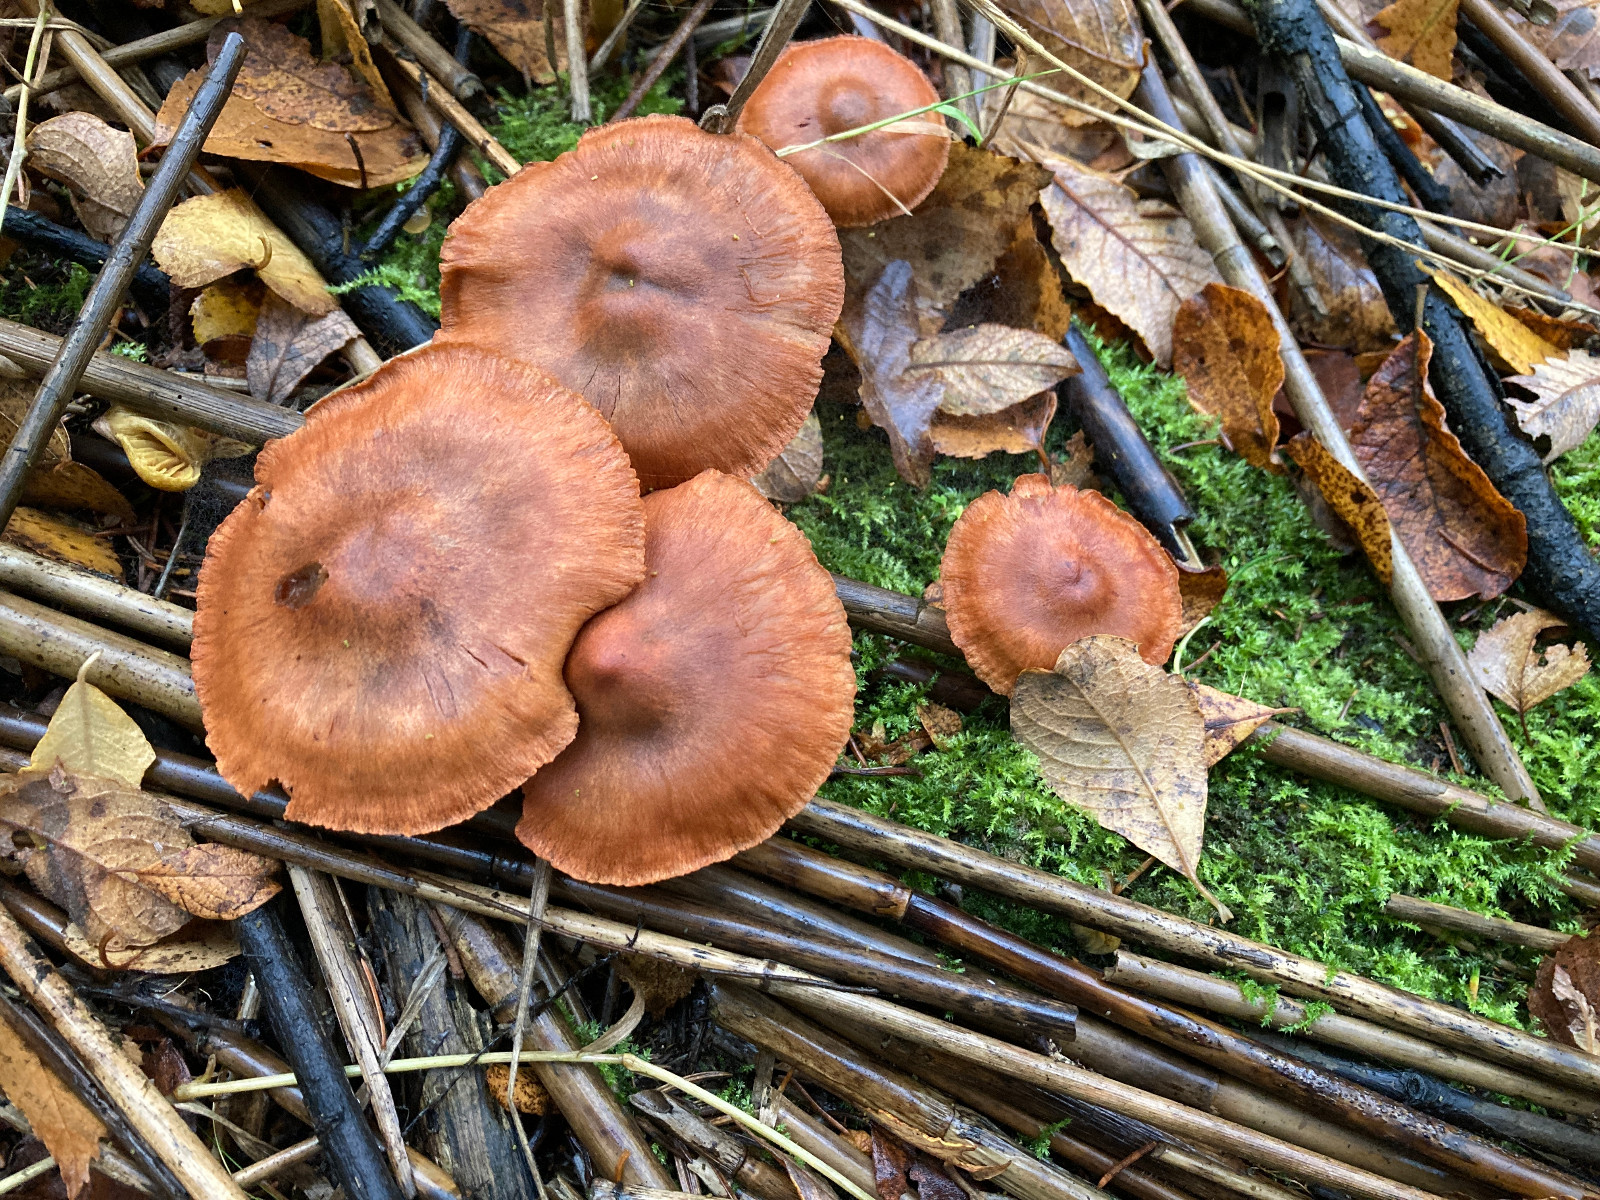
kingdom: Fungi
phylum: Basidiomycota
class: Agaricomycetes
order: Agaricales
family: Cortinariaceae
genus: Cortinarius
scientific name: Cortinarius uliginosus
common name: mose-slørhat
